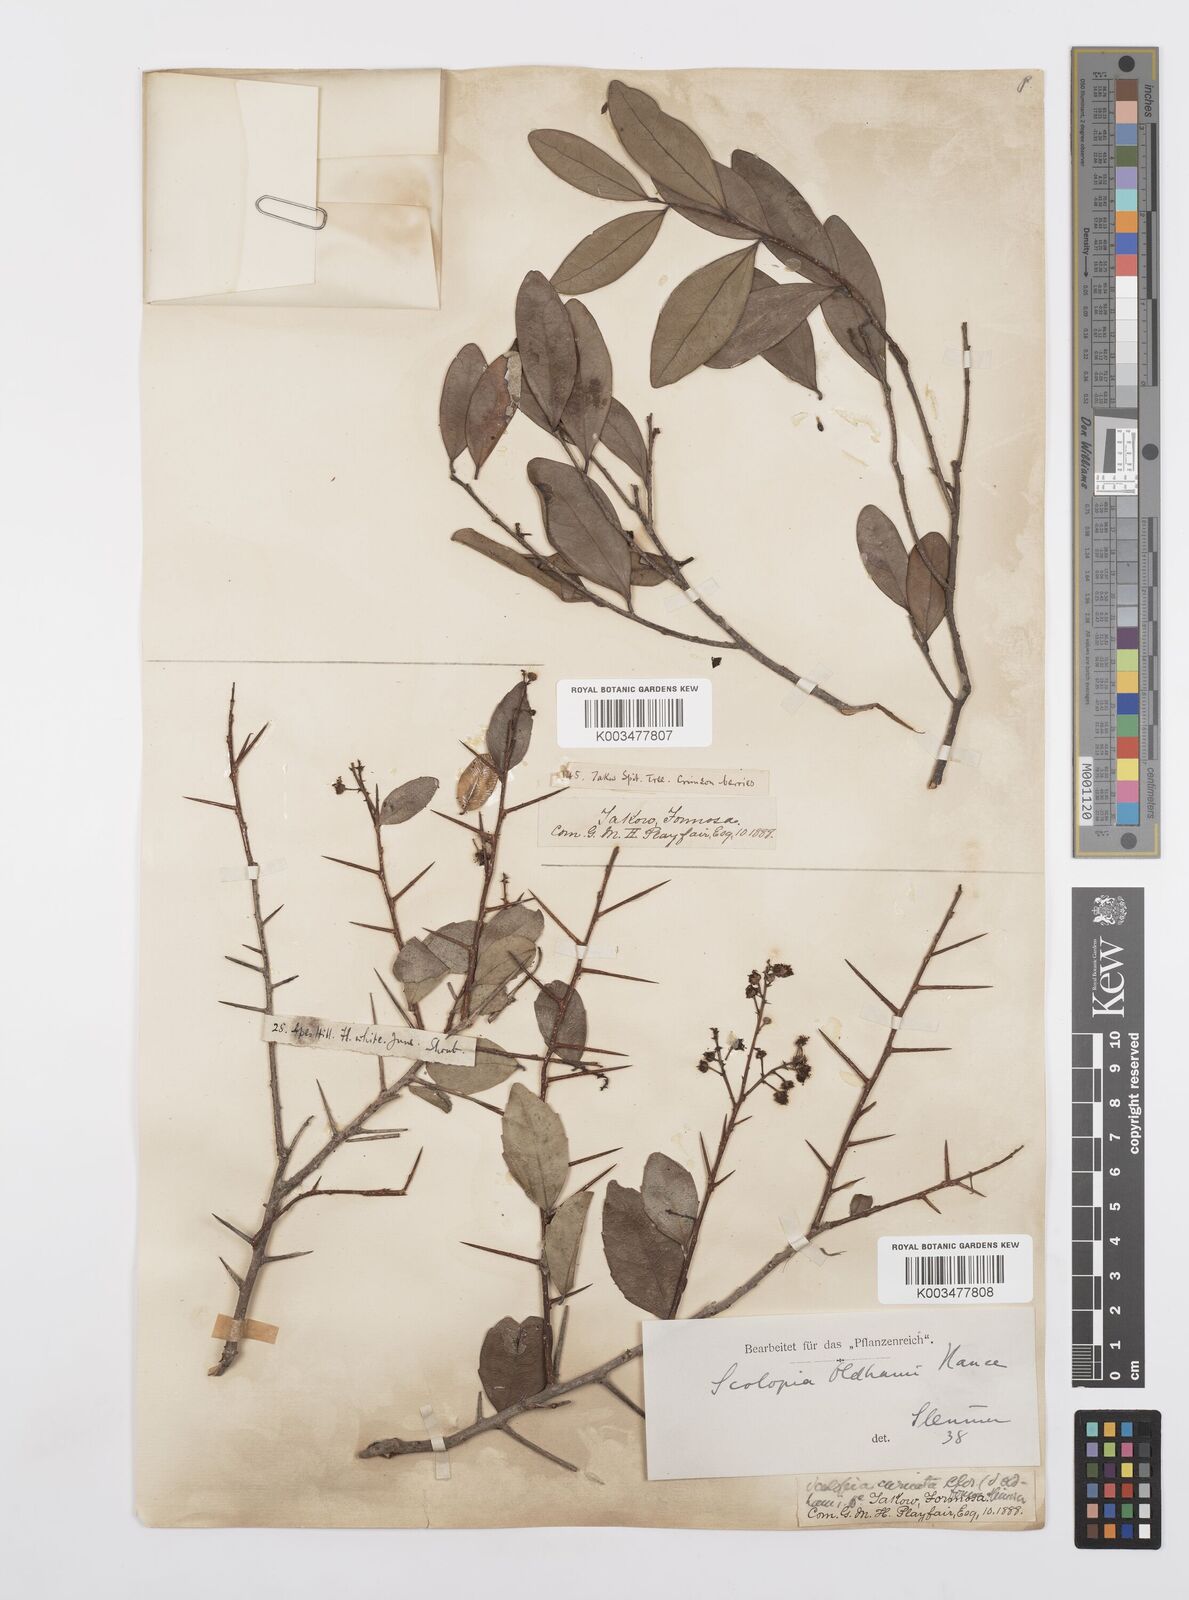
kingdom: Plantae
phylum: Tracheophyta
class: Magnoliopsida
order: Malpighiales
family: Salicaceae
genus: Scolopia
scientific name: Scolopia oldhamii
